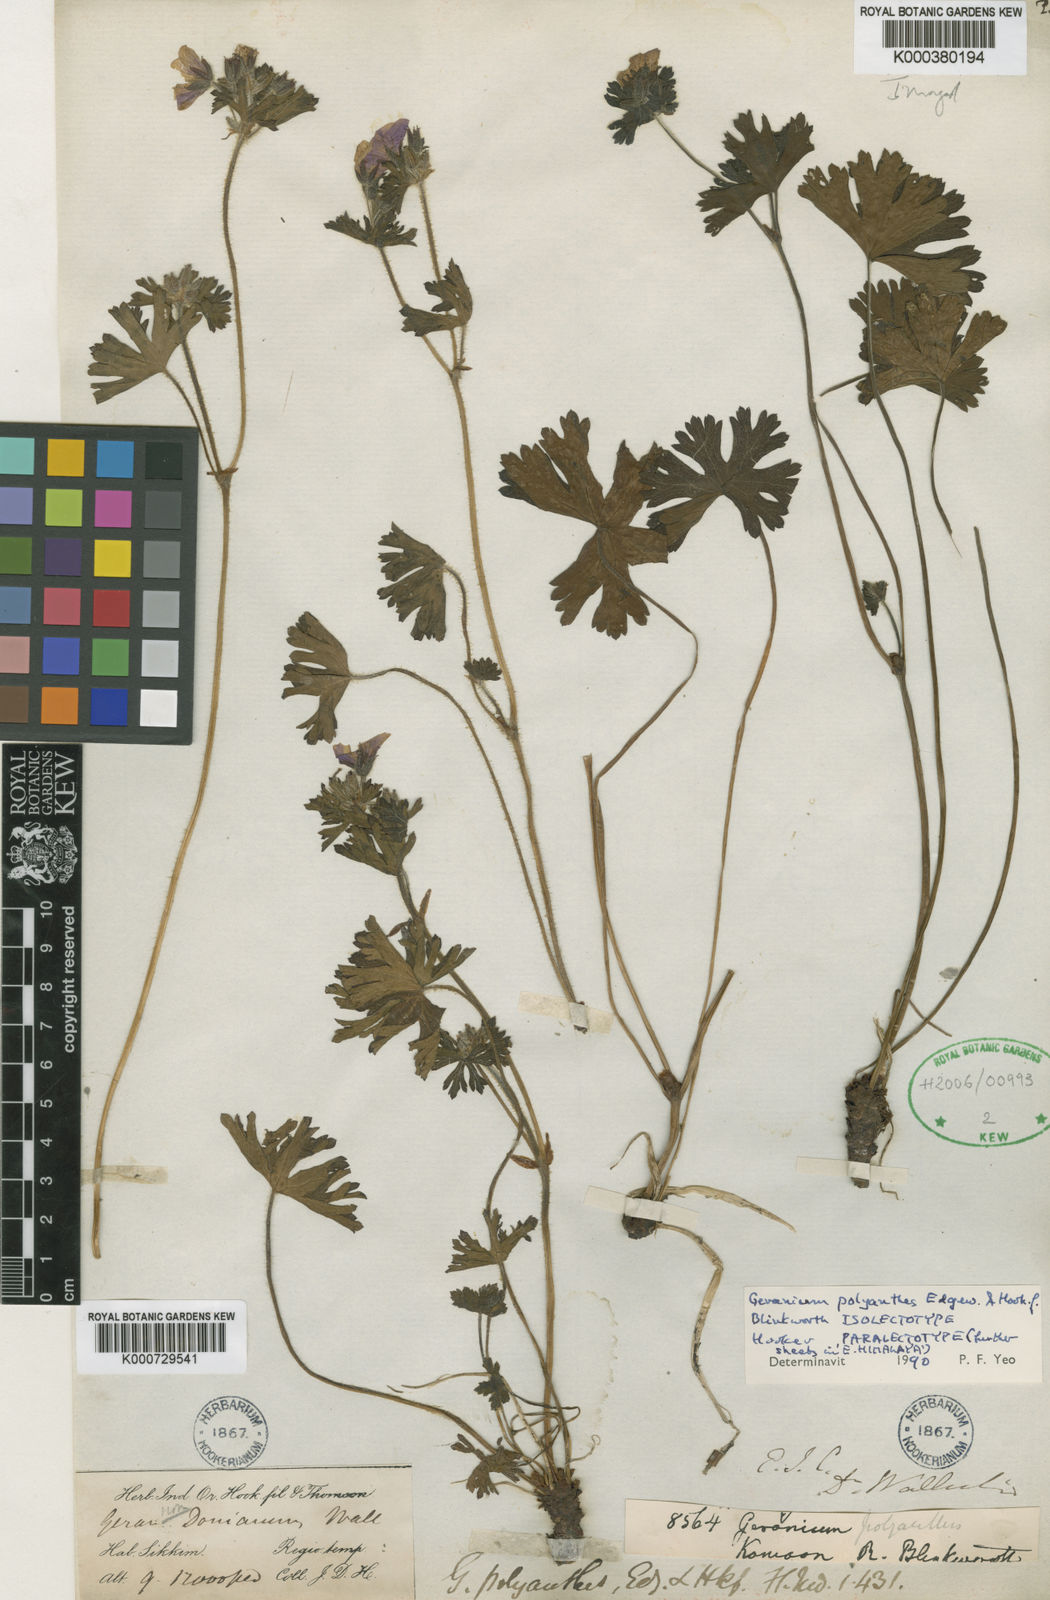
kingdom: Plantae
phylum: Tracheophyta
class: Magnoliopsida
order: Geraniales
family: Geraniaceae
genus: Geranium
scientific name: Geranium polyanthes
